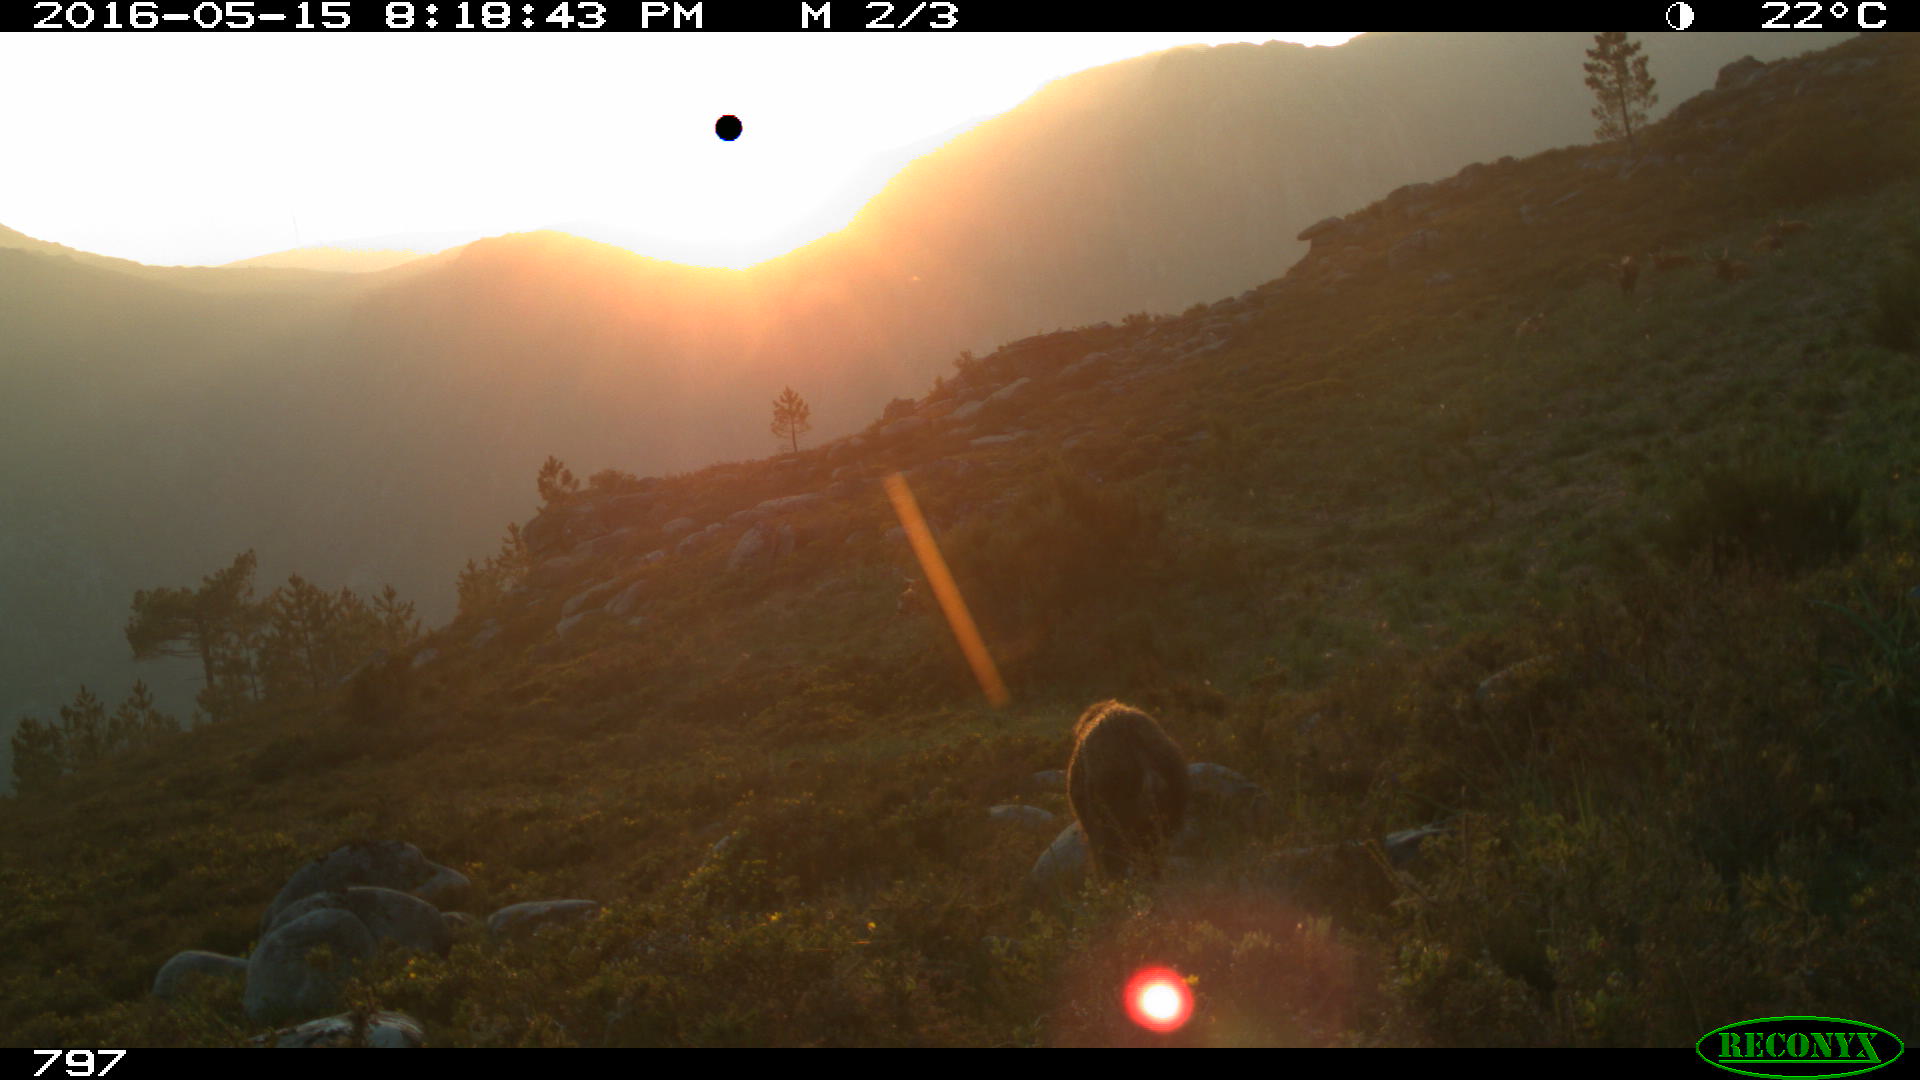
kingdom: Animalia
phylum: Chordata
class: Mammalia
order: Artiodactyla
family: Suidae
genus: Sus
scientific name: Sus scrofa
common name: Wild boar
